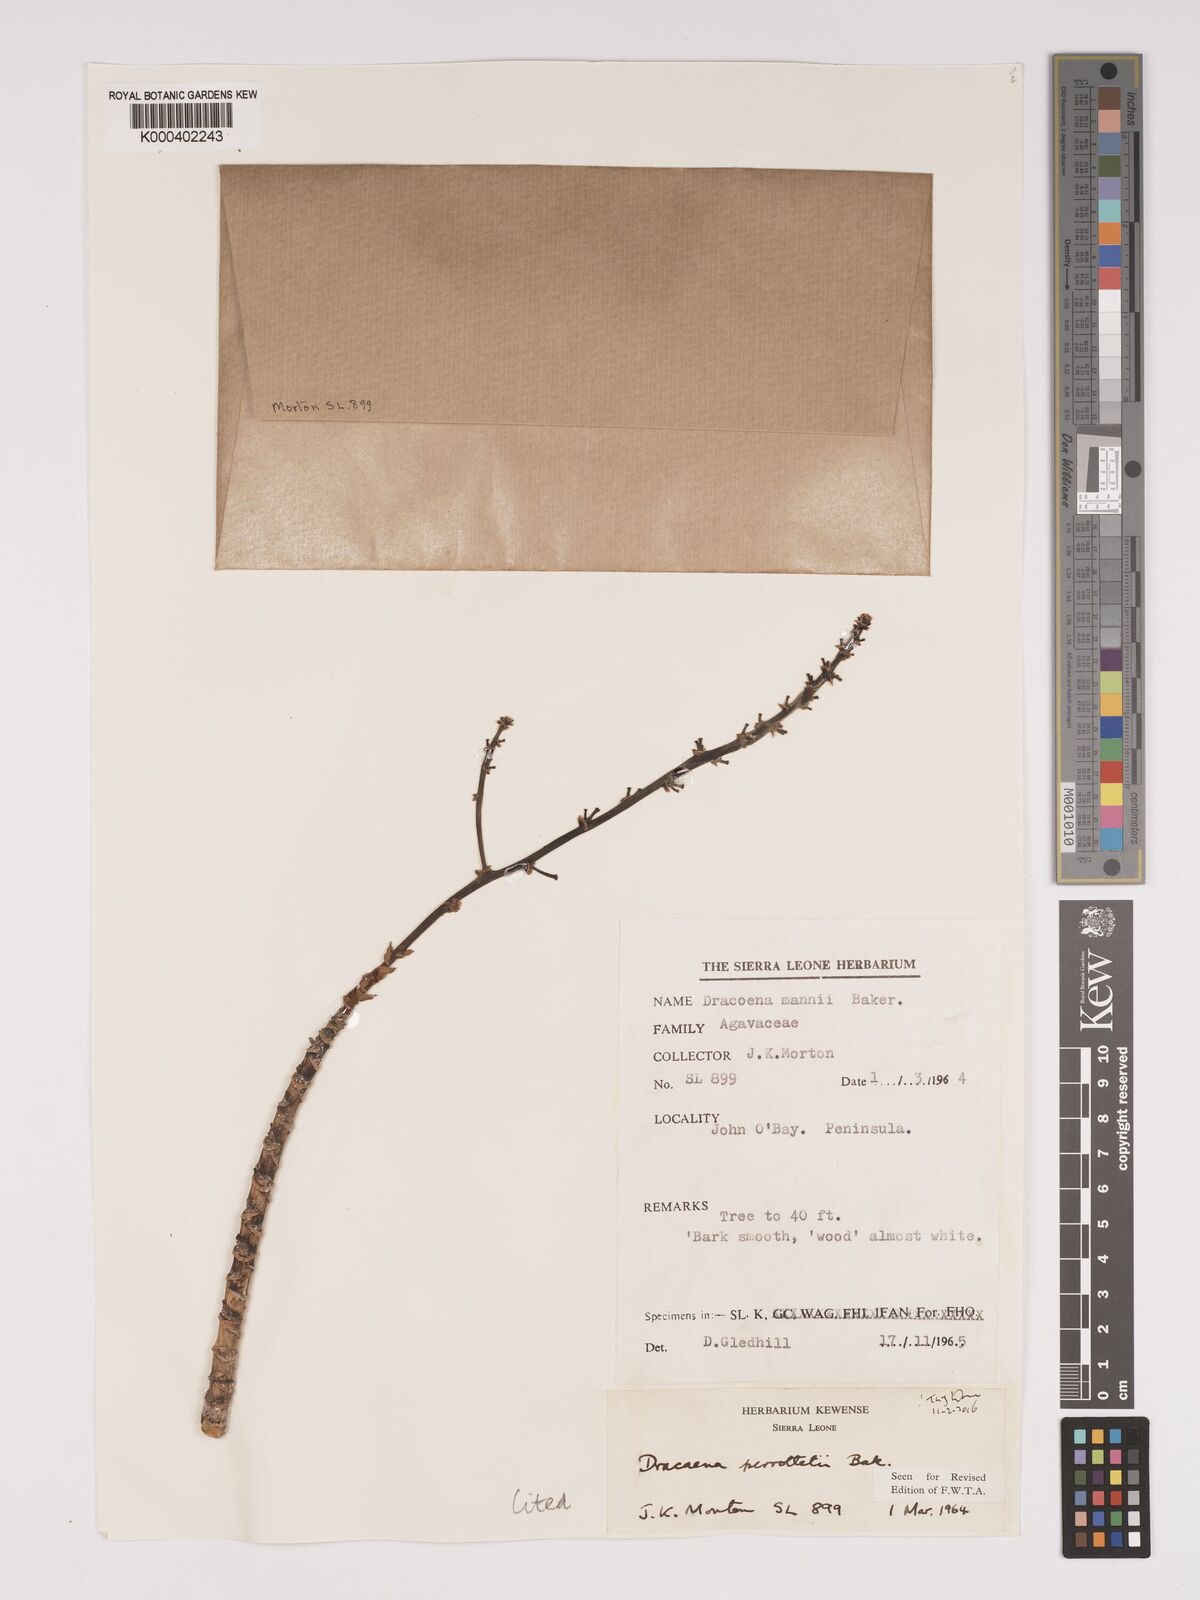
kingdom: Plantae
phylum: Tracheophyta
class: Liliopsida
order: Asparagales
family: Asparagaceae
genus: Dracaena
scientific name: Dracaena perrottetii
